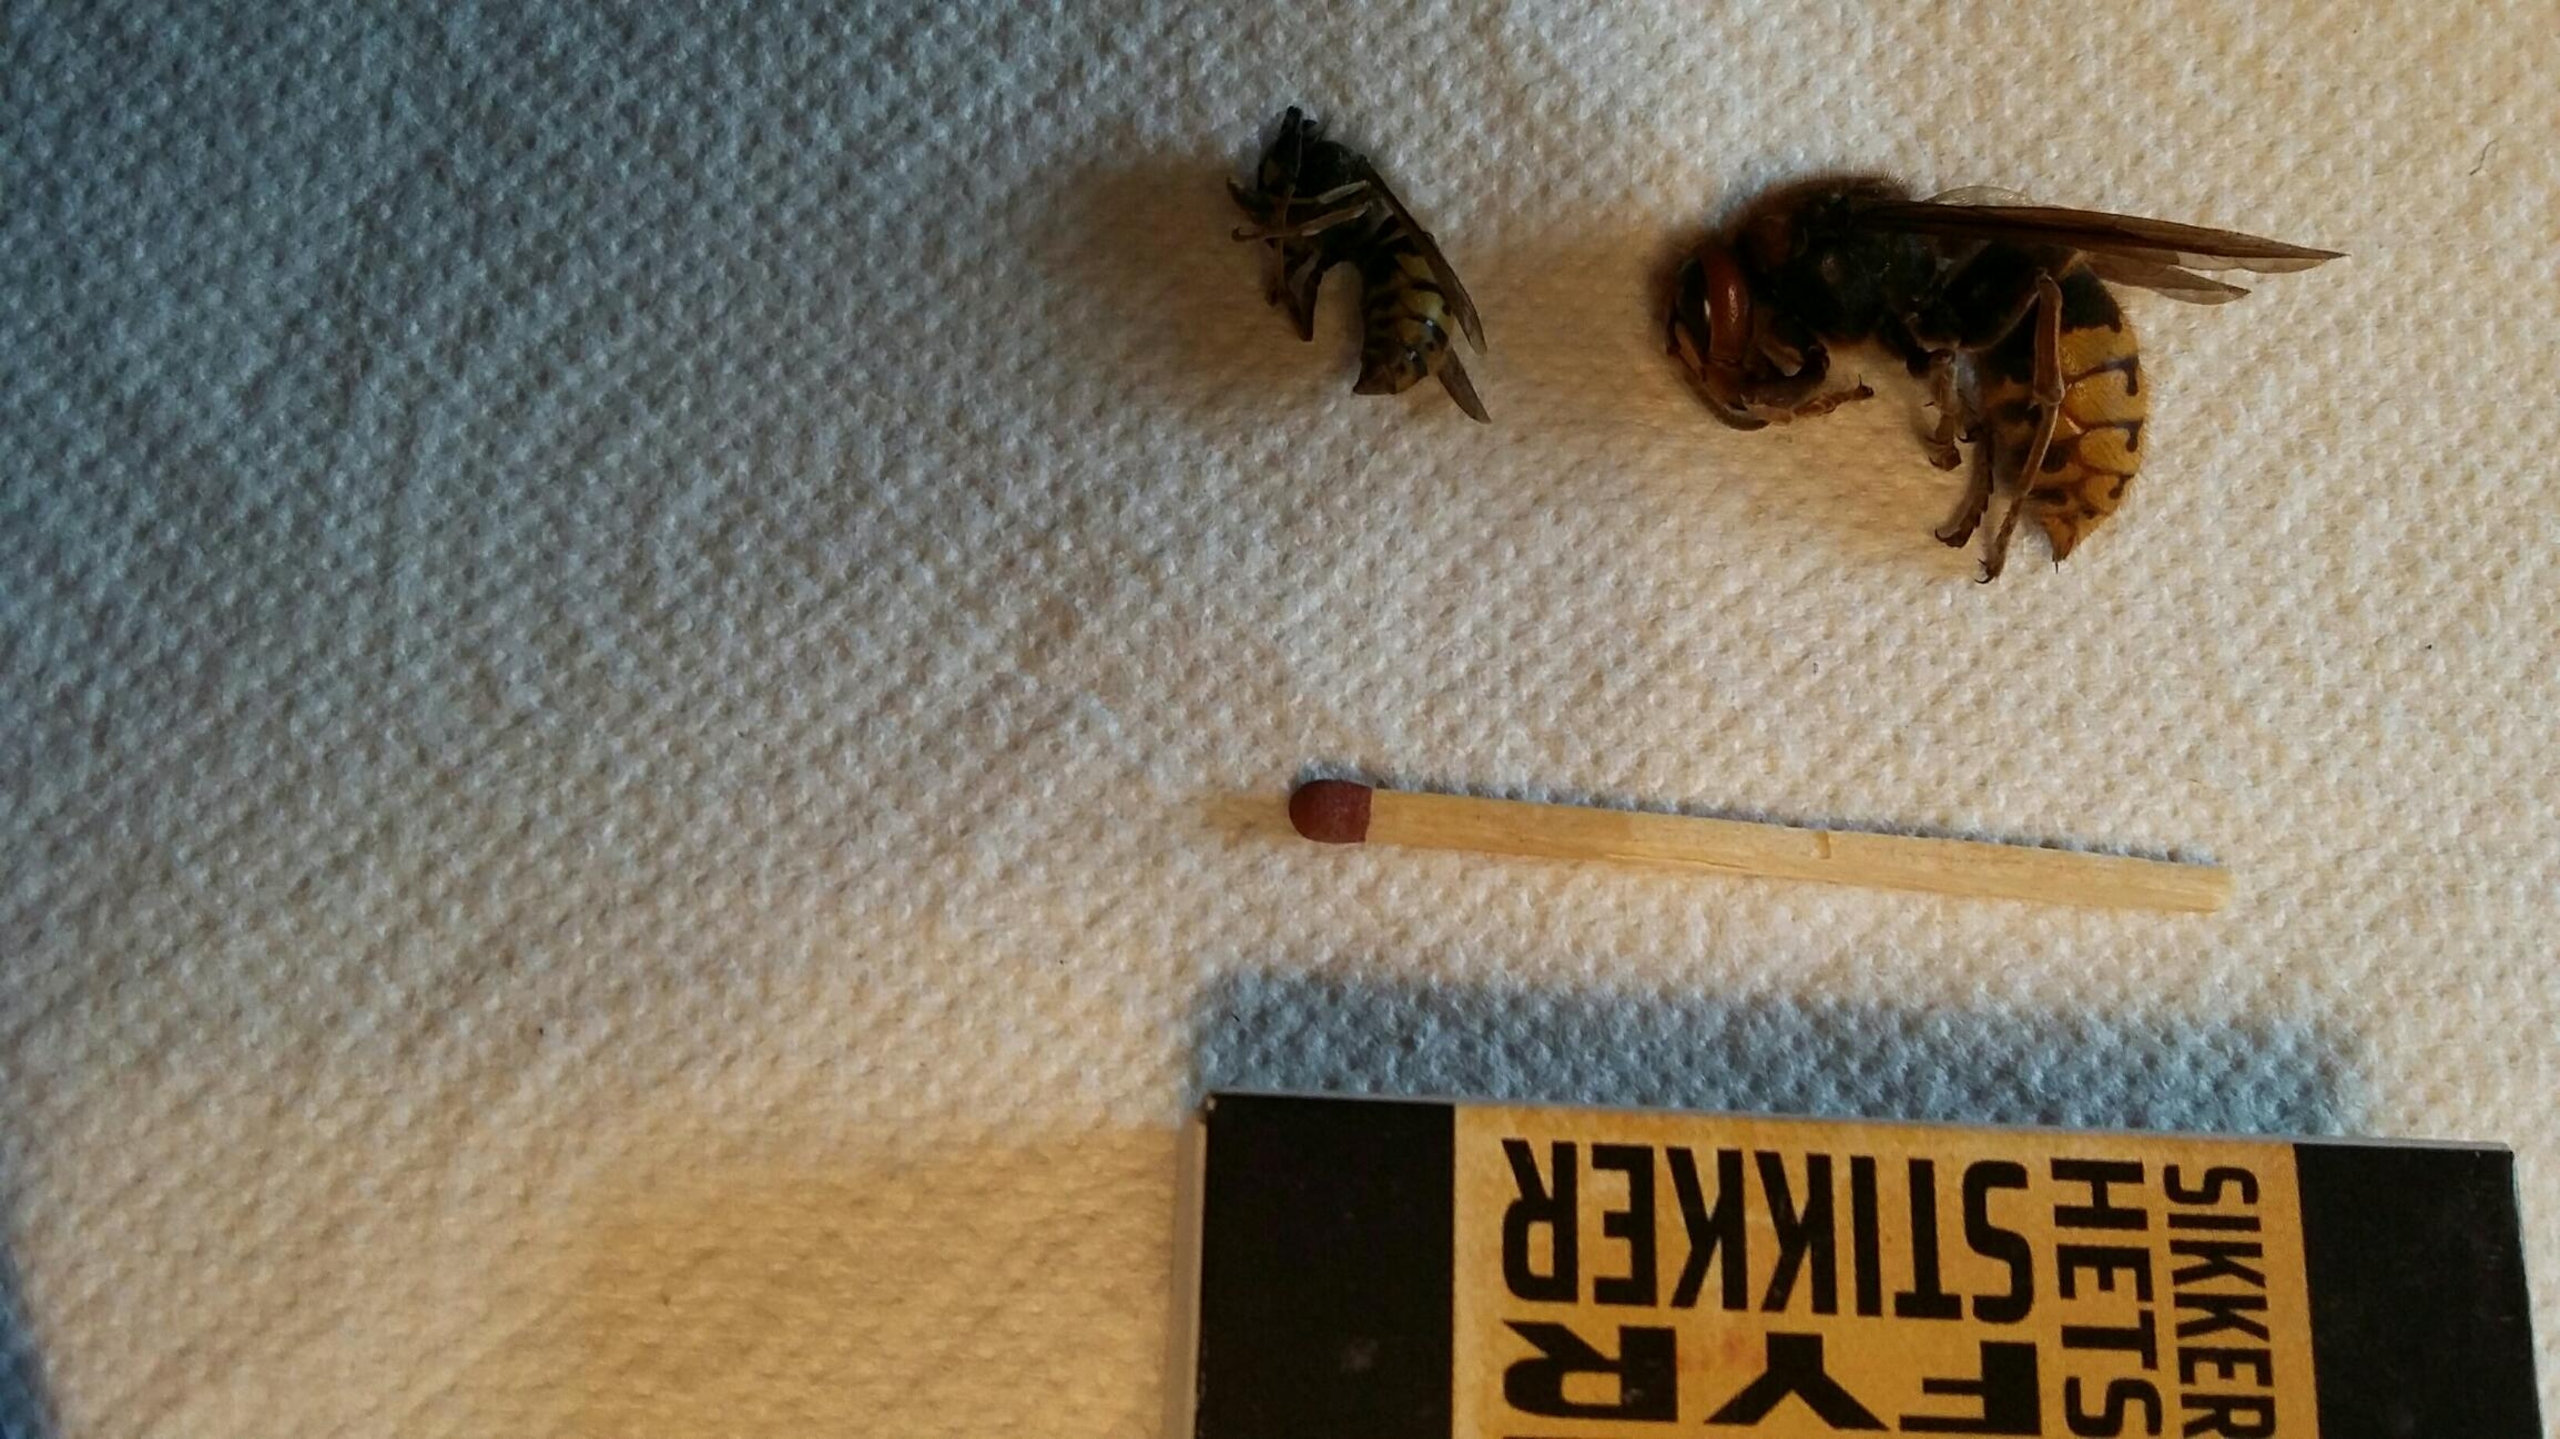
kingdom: Animalia
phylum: Arthropoda
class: Insecta
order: Hymenoptera
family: Vespidae
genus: Vespa
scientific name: Vespa crabro
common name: Stor gedehams
